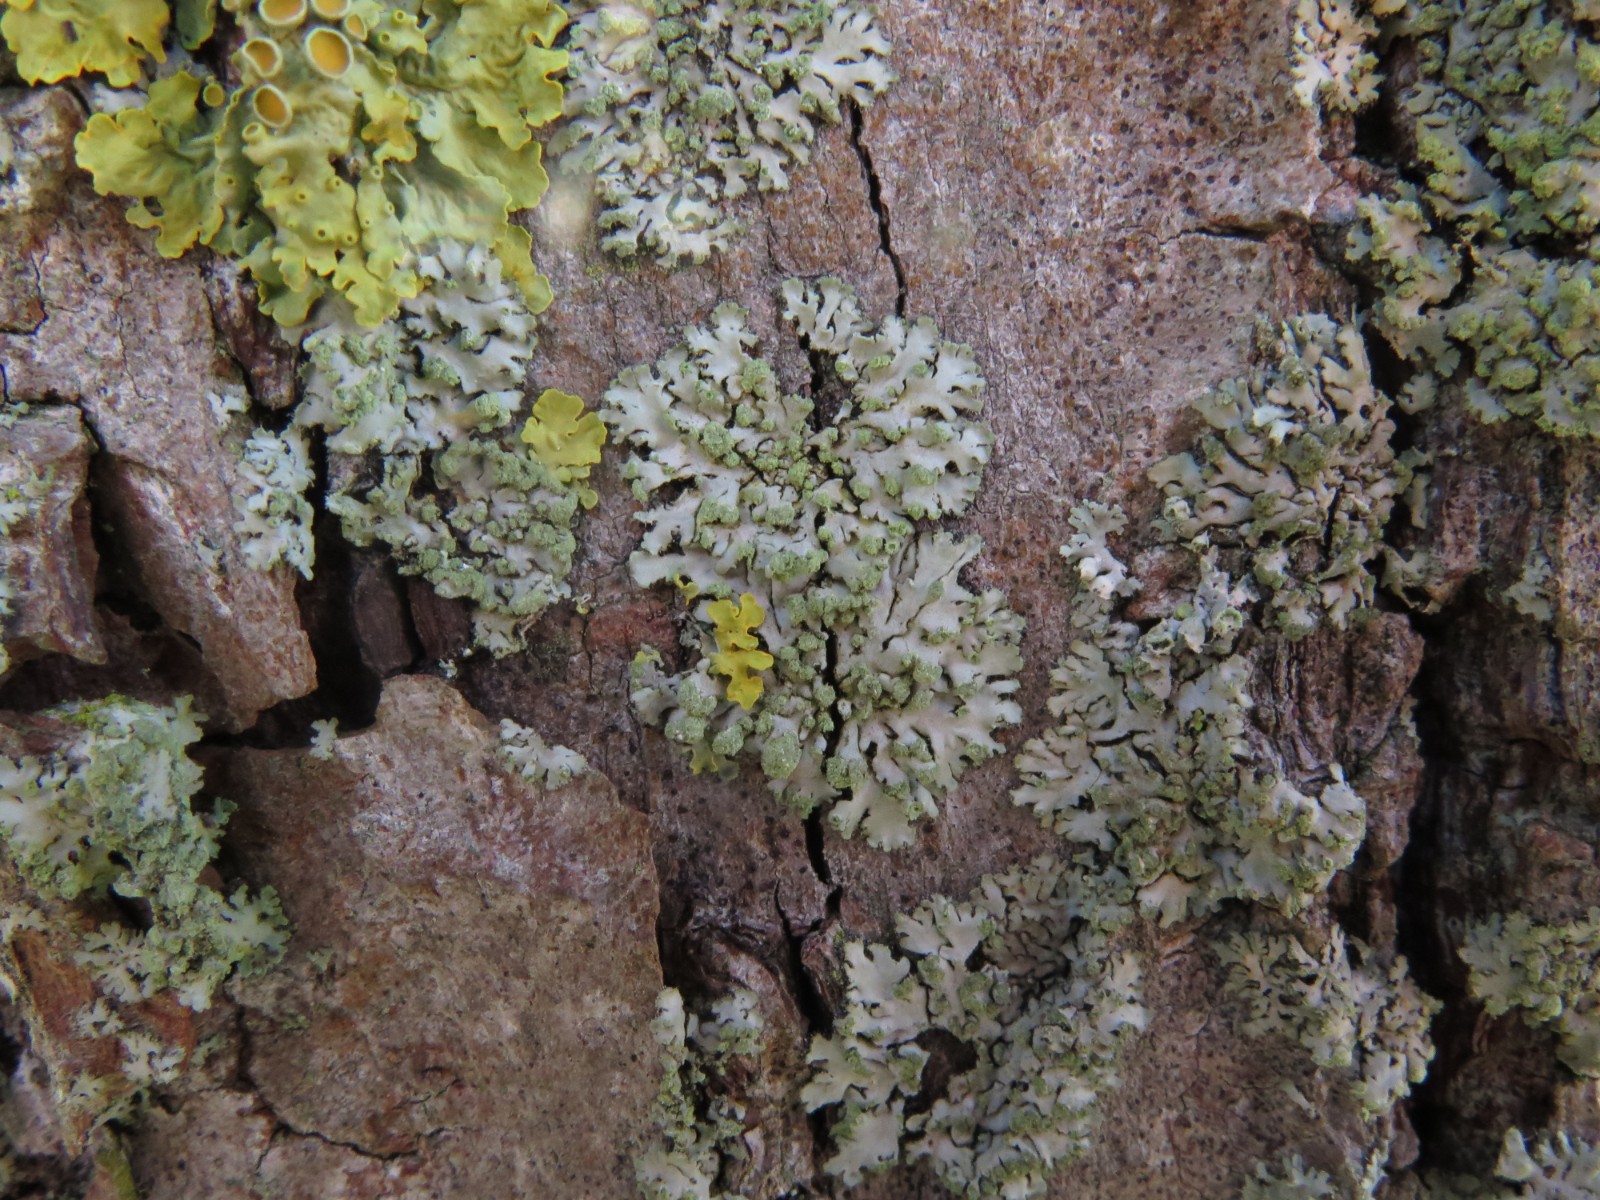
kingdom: Fungi
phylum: Ascomycota
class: Lecanoromycetes
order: Caliciales
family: Physciaceae
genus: Phaeophyscia
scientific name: Phaeophyscia orbicularis
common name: grågrøn rosetlav
